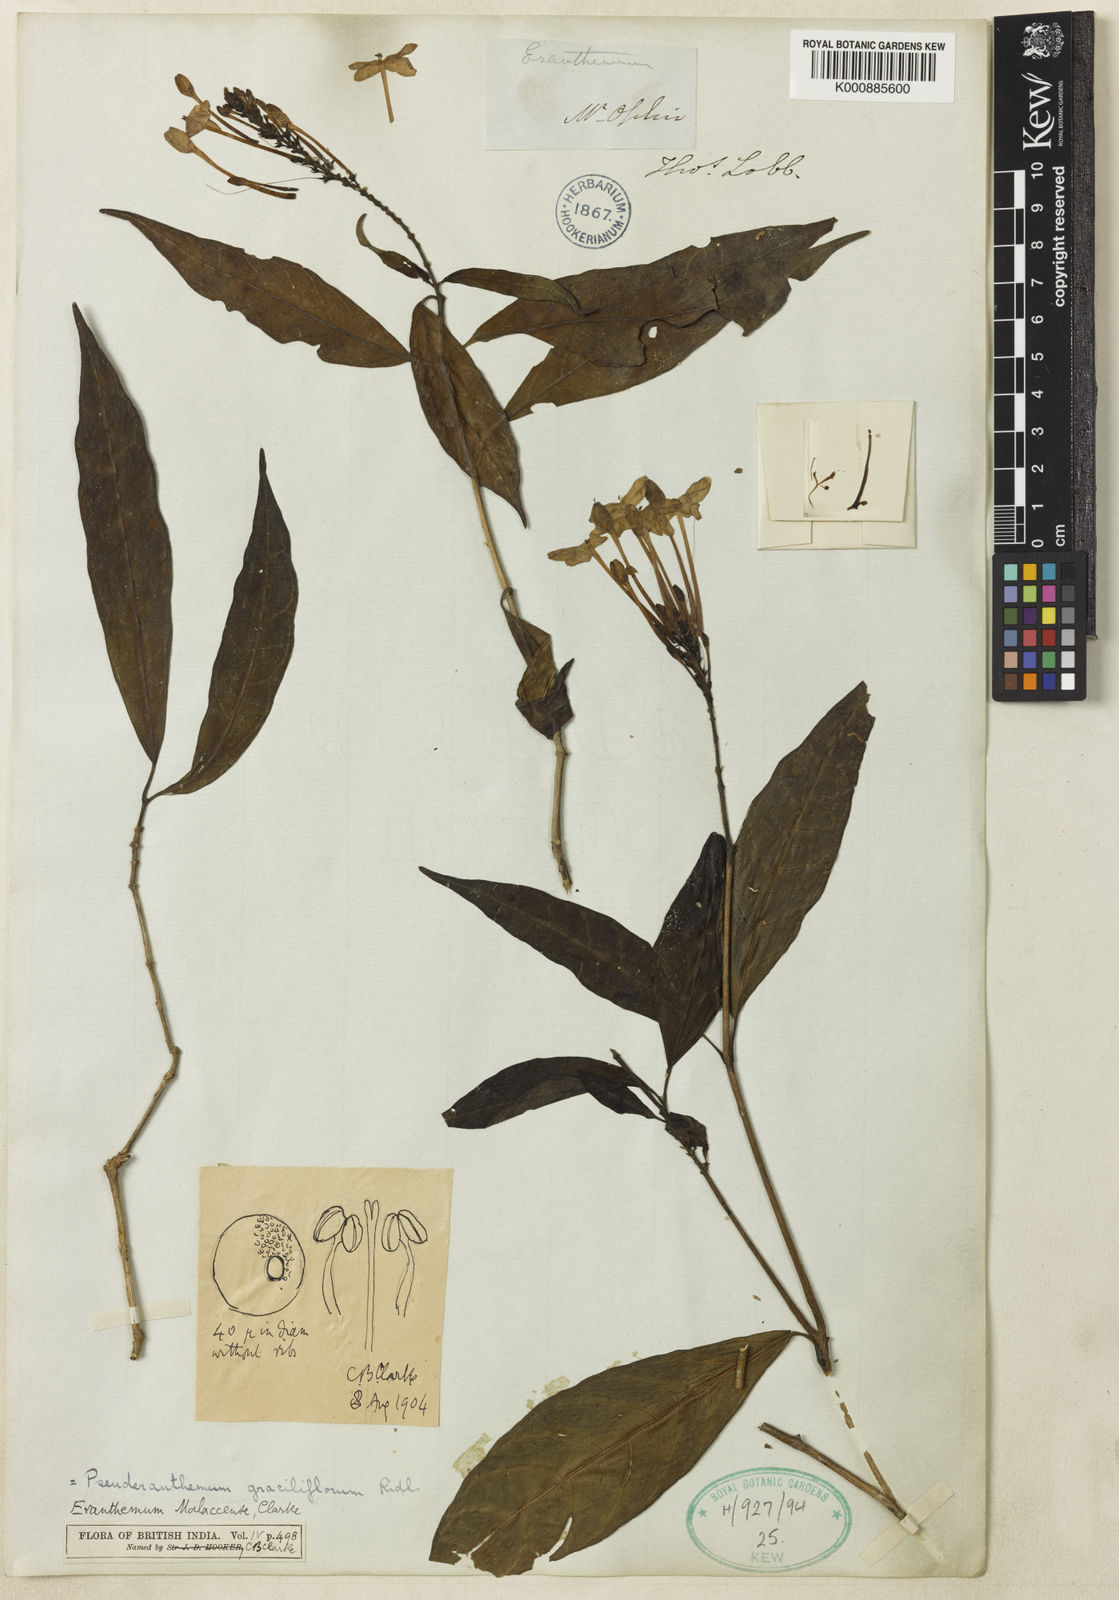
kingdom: Plantae
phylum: Tracheophyta
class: Magnoliopsida
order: Lamiales
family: Acanthaceae
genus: Pseuderanthemum
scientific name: Pseuderanthemum graciliflorum
